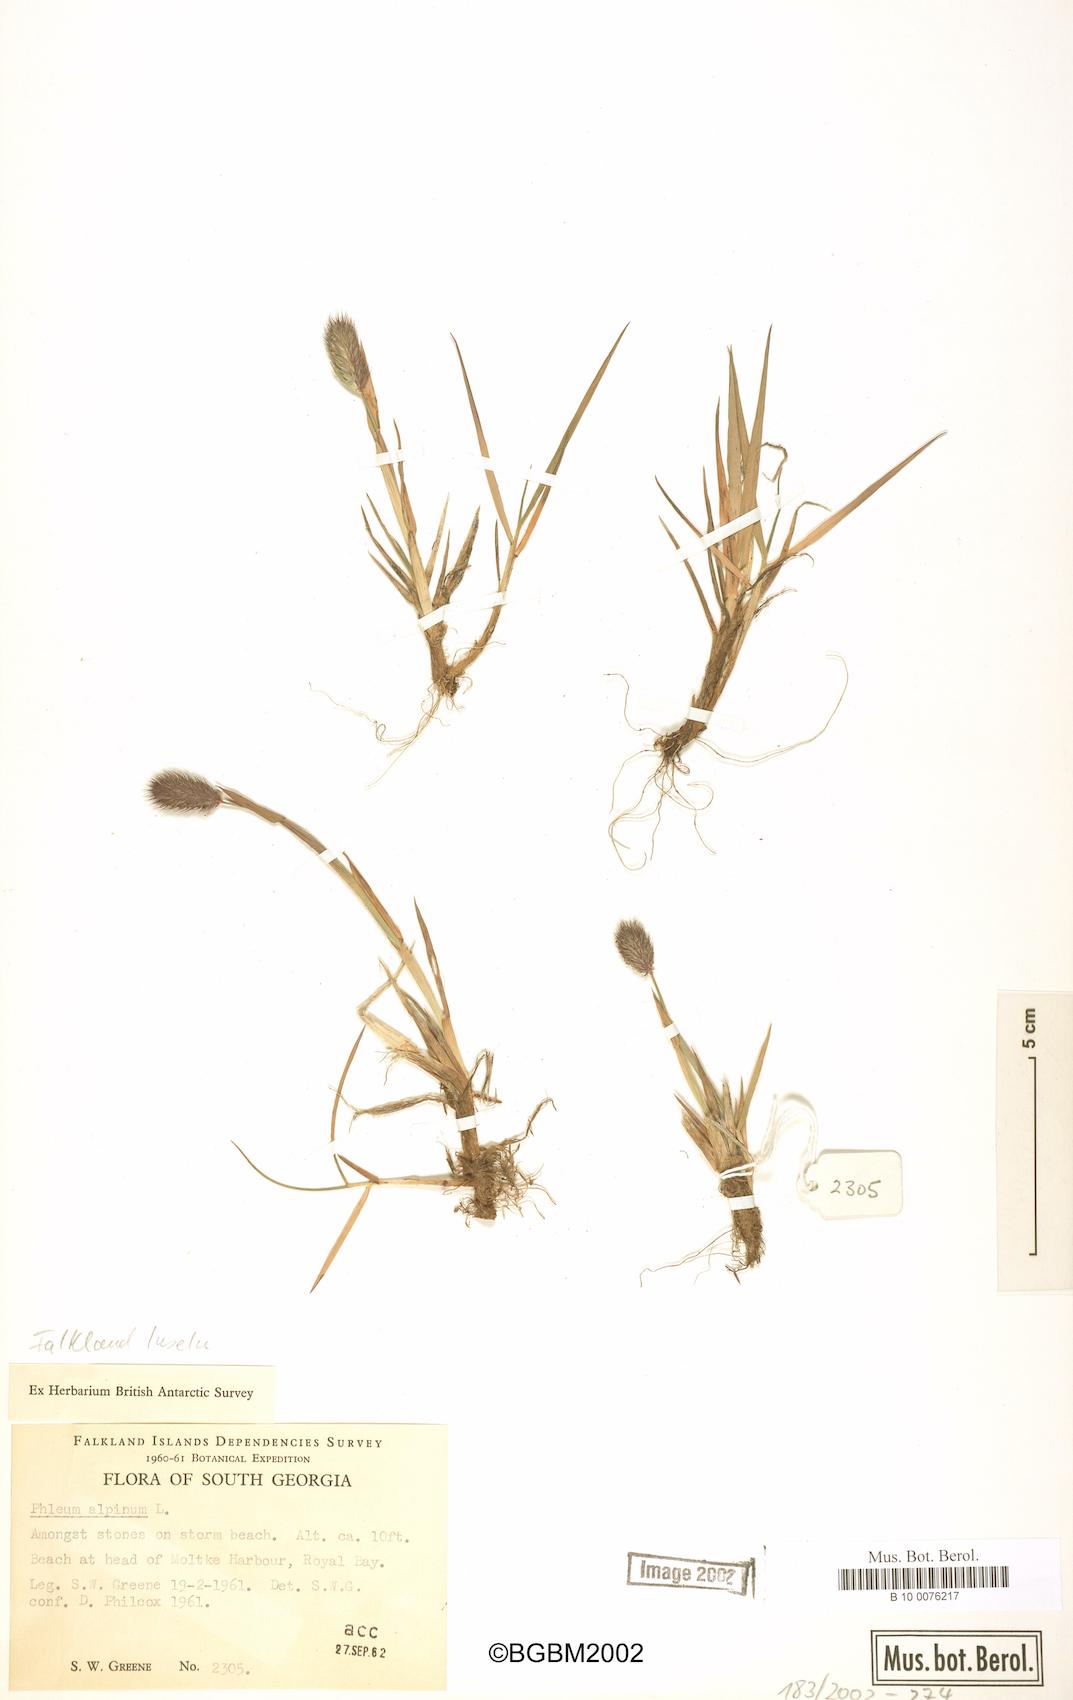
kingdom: Plantae
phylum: Tracheophyta
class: Liliopsida
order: Poales
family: Poaceae
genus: Phleum
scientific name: Phleum alpinum
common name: Alpine cat's-tail
